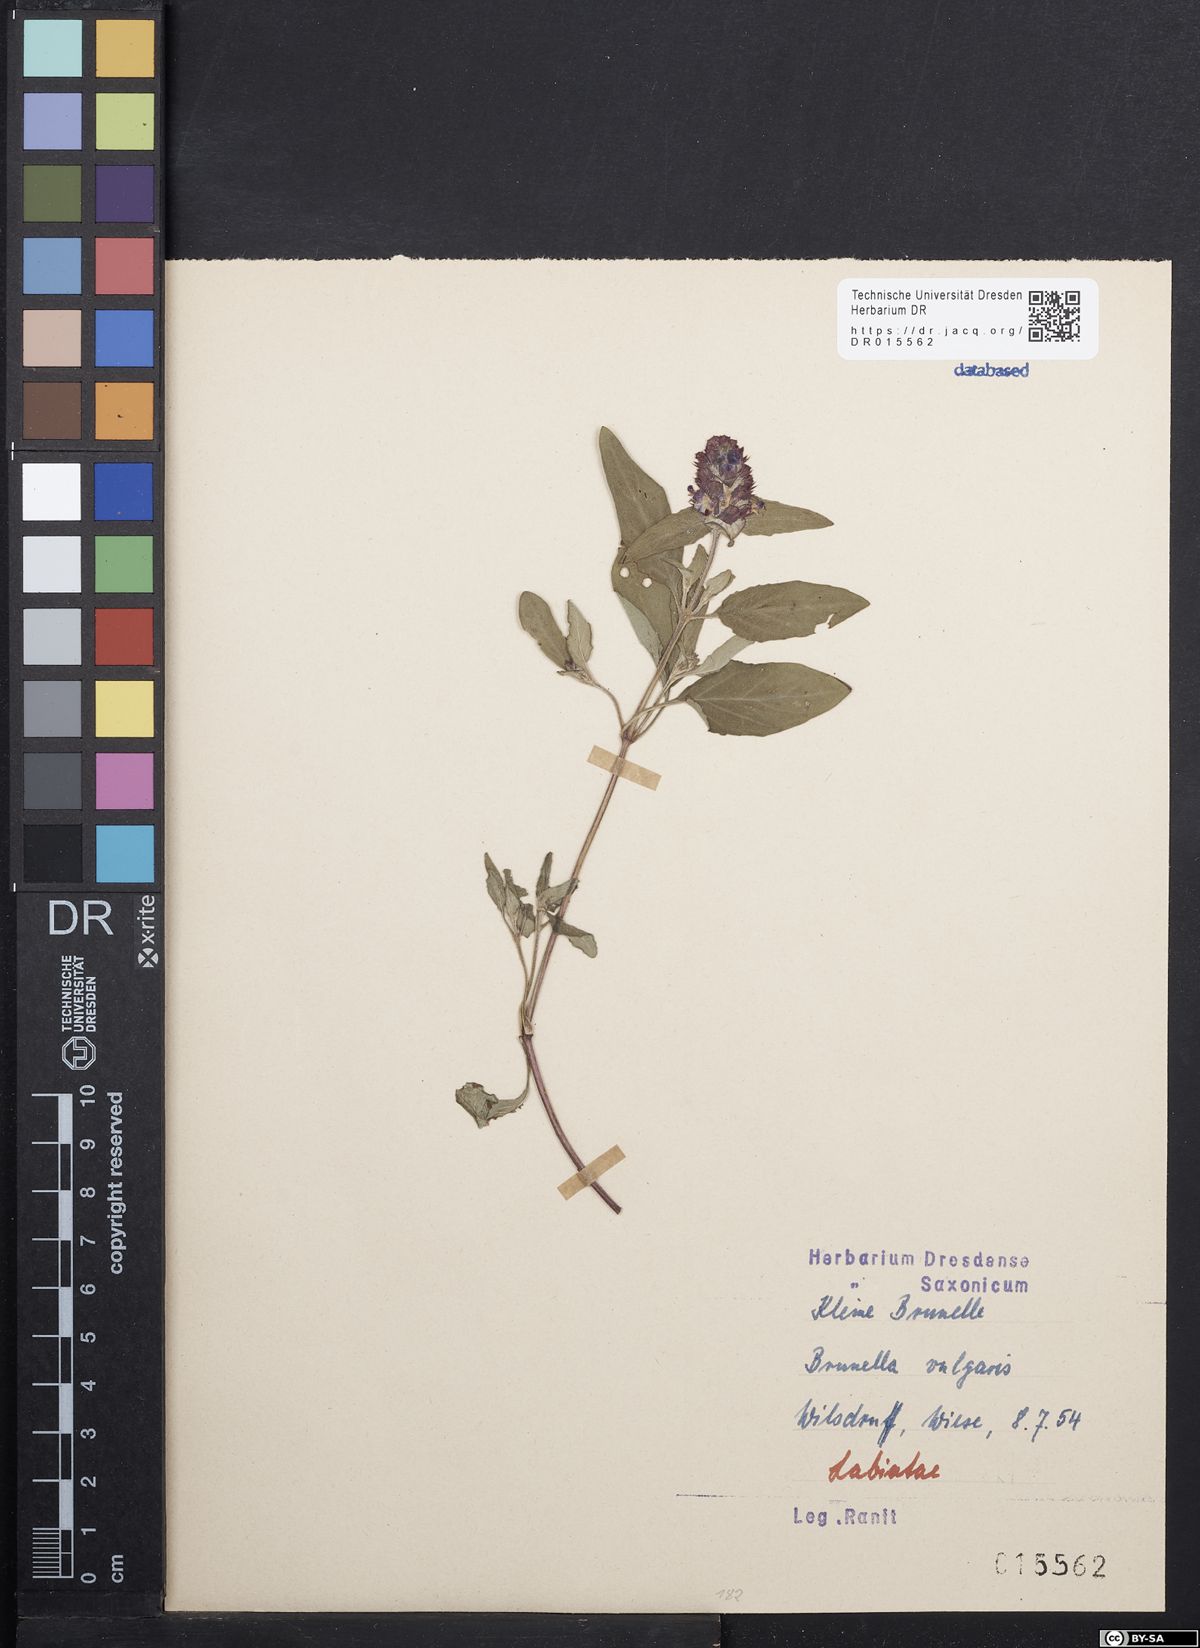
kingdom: Plantae
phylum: Tracheophyta
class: Magnoliopsida
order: Lamiales
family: Lamiaceae
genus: Prunella
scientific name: Prunella vulgaris
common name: Heal-all
